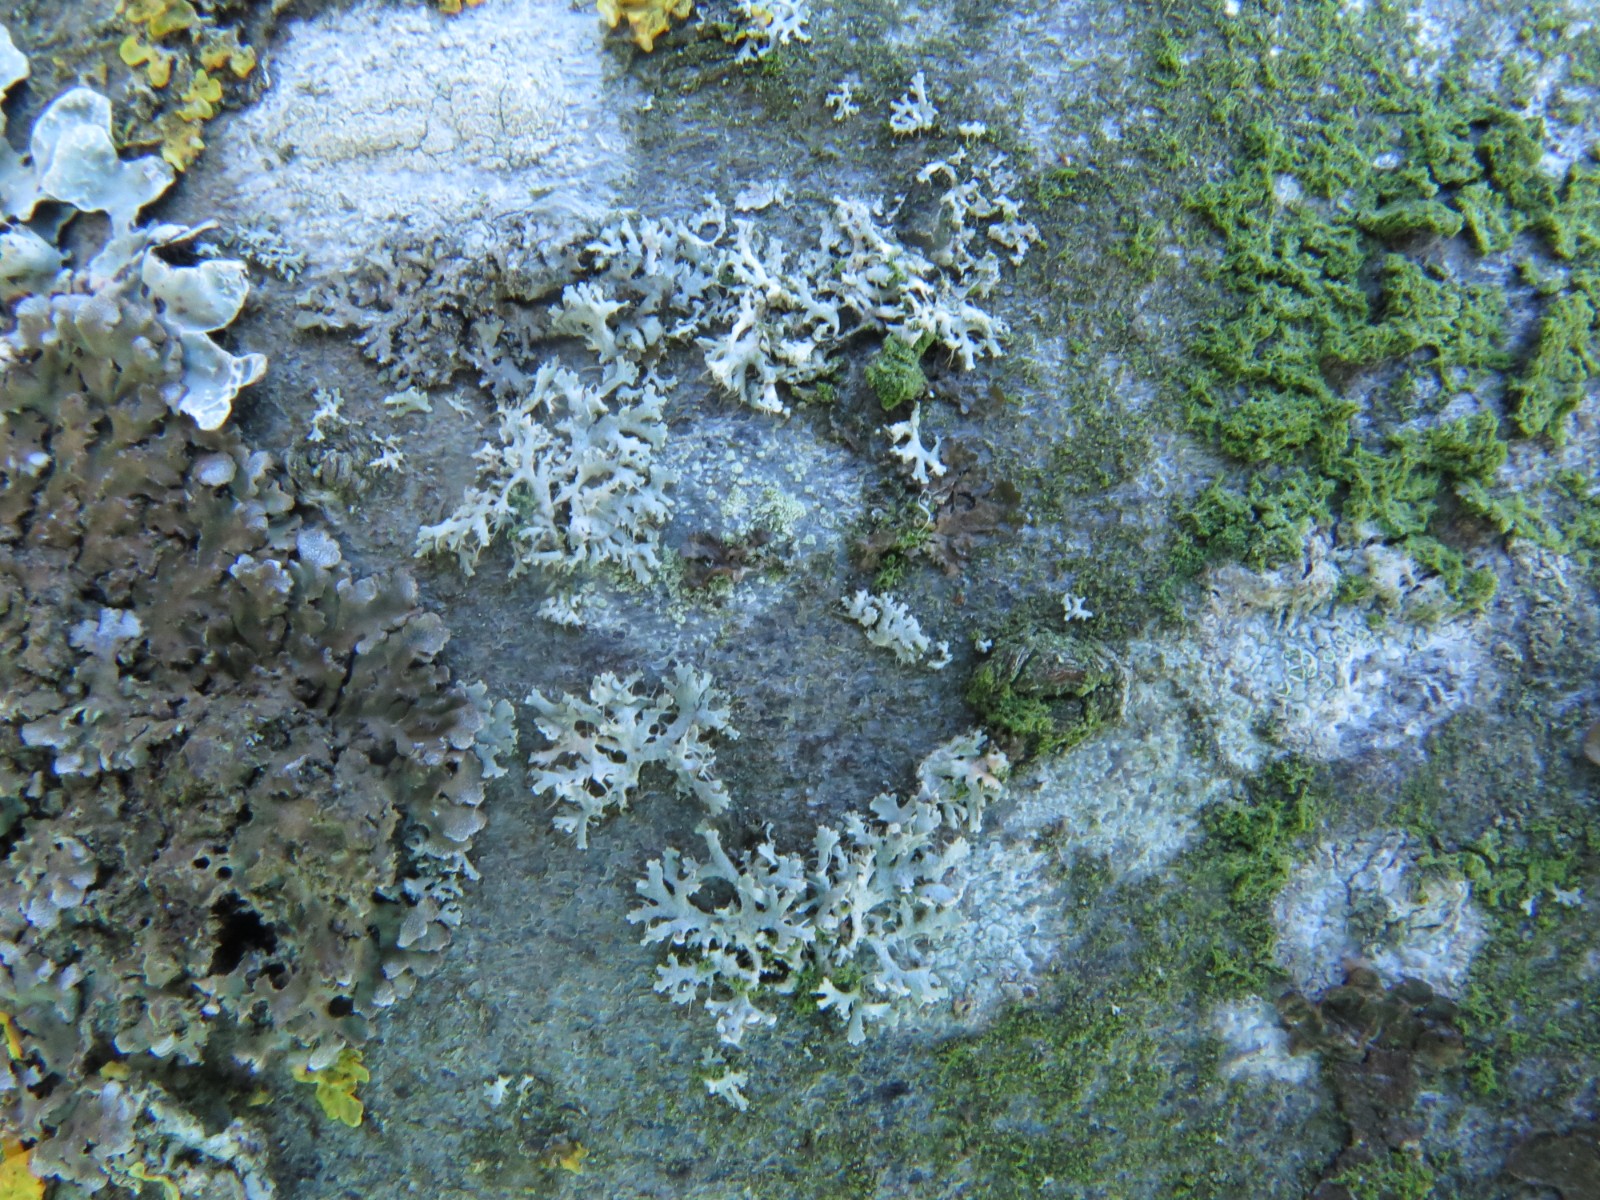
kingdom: Fungi
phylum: Ascomycota
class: Lecanoromycetes
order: Caliciales
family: Physciaceae
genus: Physcia
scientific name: Physcia tenella
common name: spæd rosetlav
